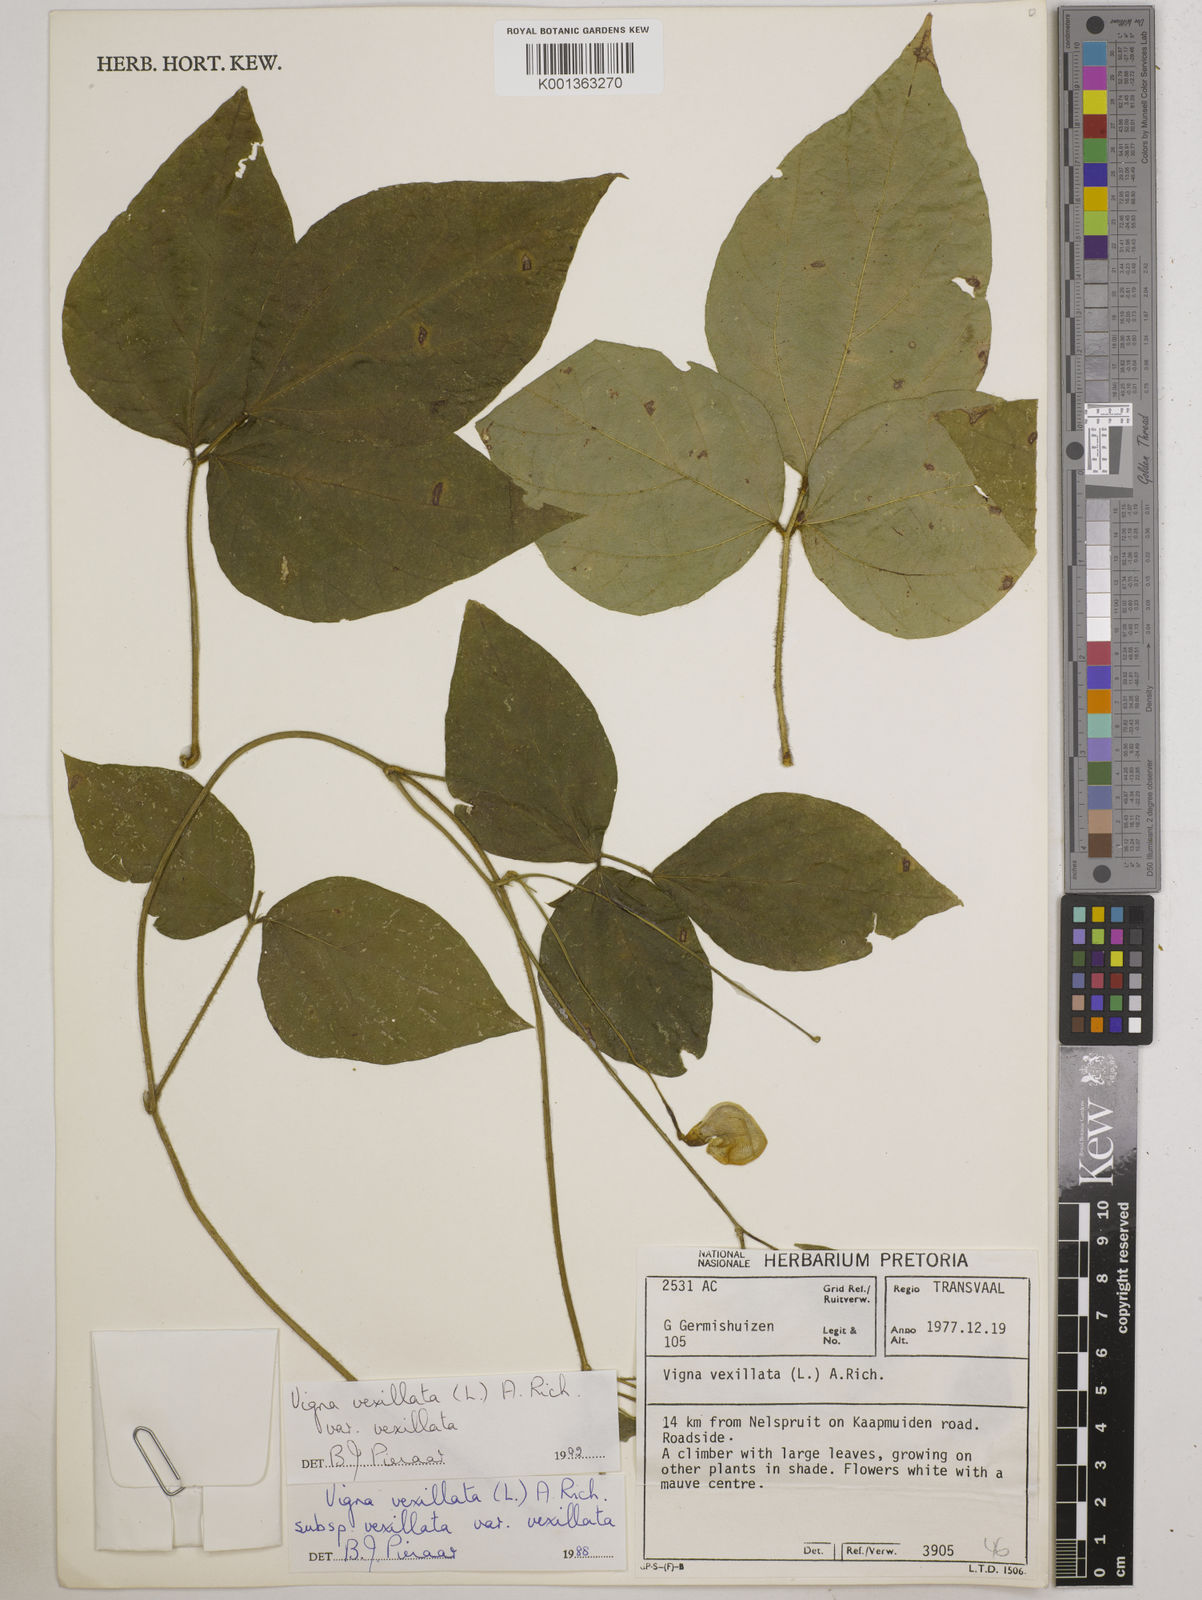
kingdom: Plantae
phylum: Tracheophyta
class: Magnoliopsida
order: Fabales
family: Fabaceae
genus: Vigna
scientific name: Vigna
